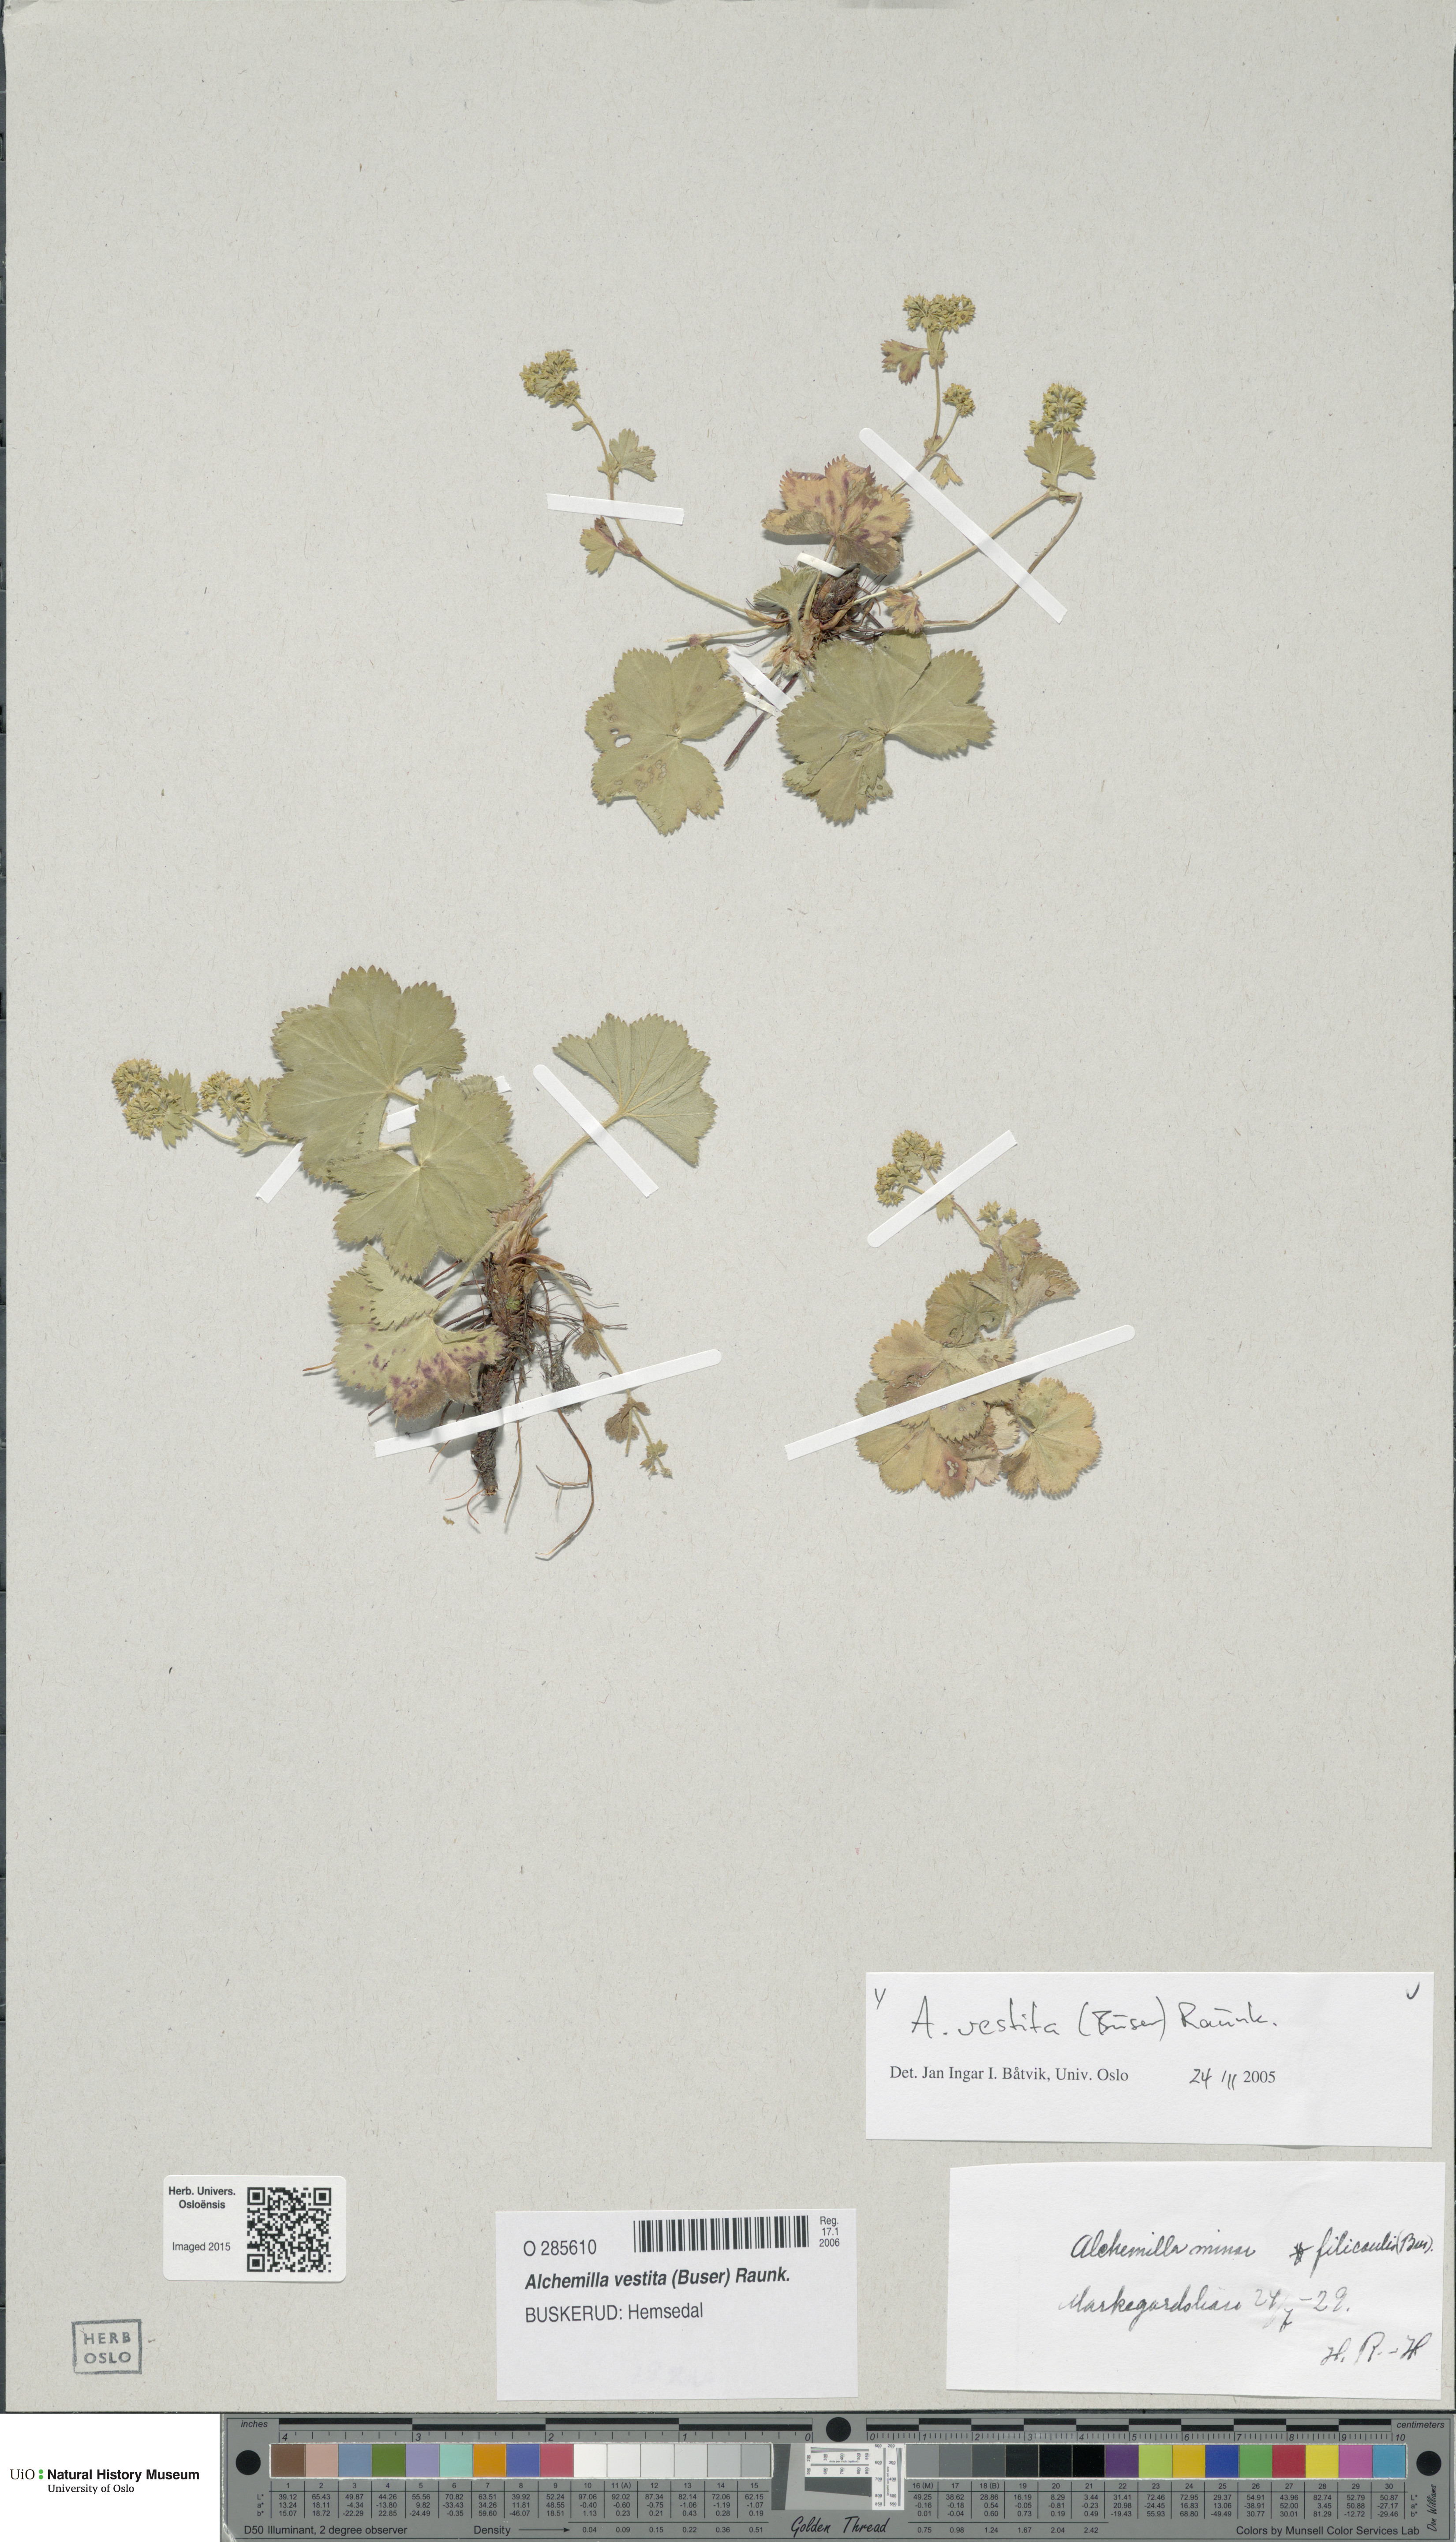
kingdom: Plantae
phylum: Tracheophyta
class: Magnoliopsida
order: Rosales
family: Rosaceae
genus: Alchemilla
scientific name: Alchemilla filicaulis
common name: Hairy lady's-mantle
